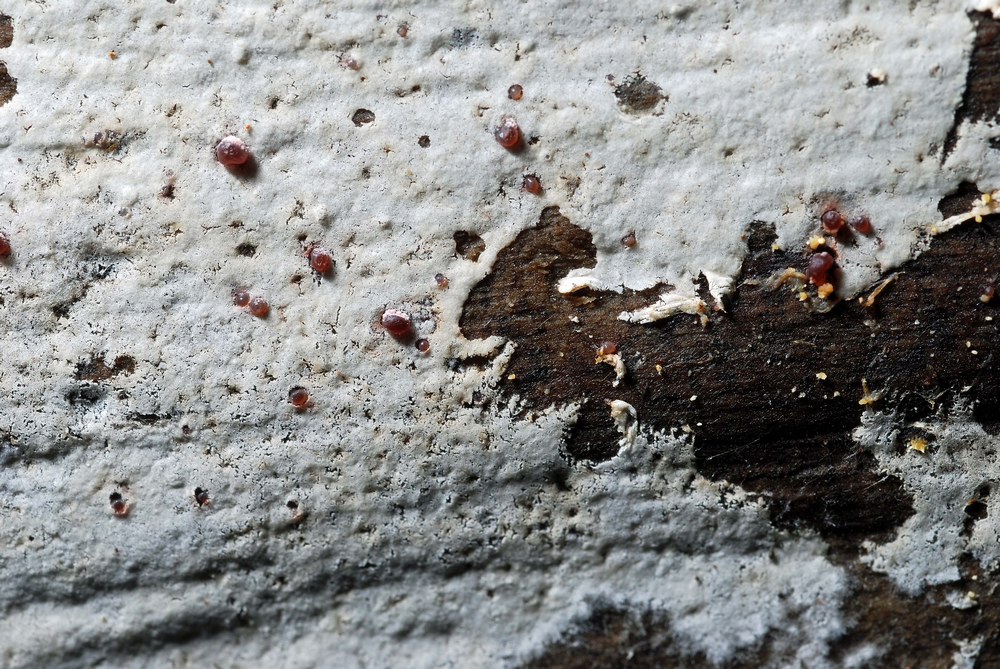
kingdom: Fungi
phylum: Basidiomycota
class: Agaricomycetes
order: Atheliales
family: Atheliaceae
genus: Athelia
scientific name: Athelia epiphylla
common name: almindelig barkhinde
